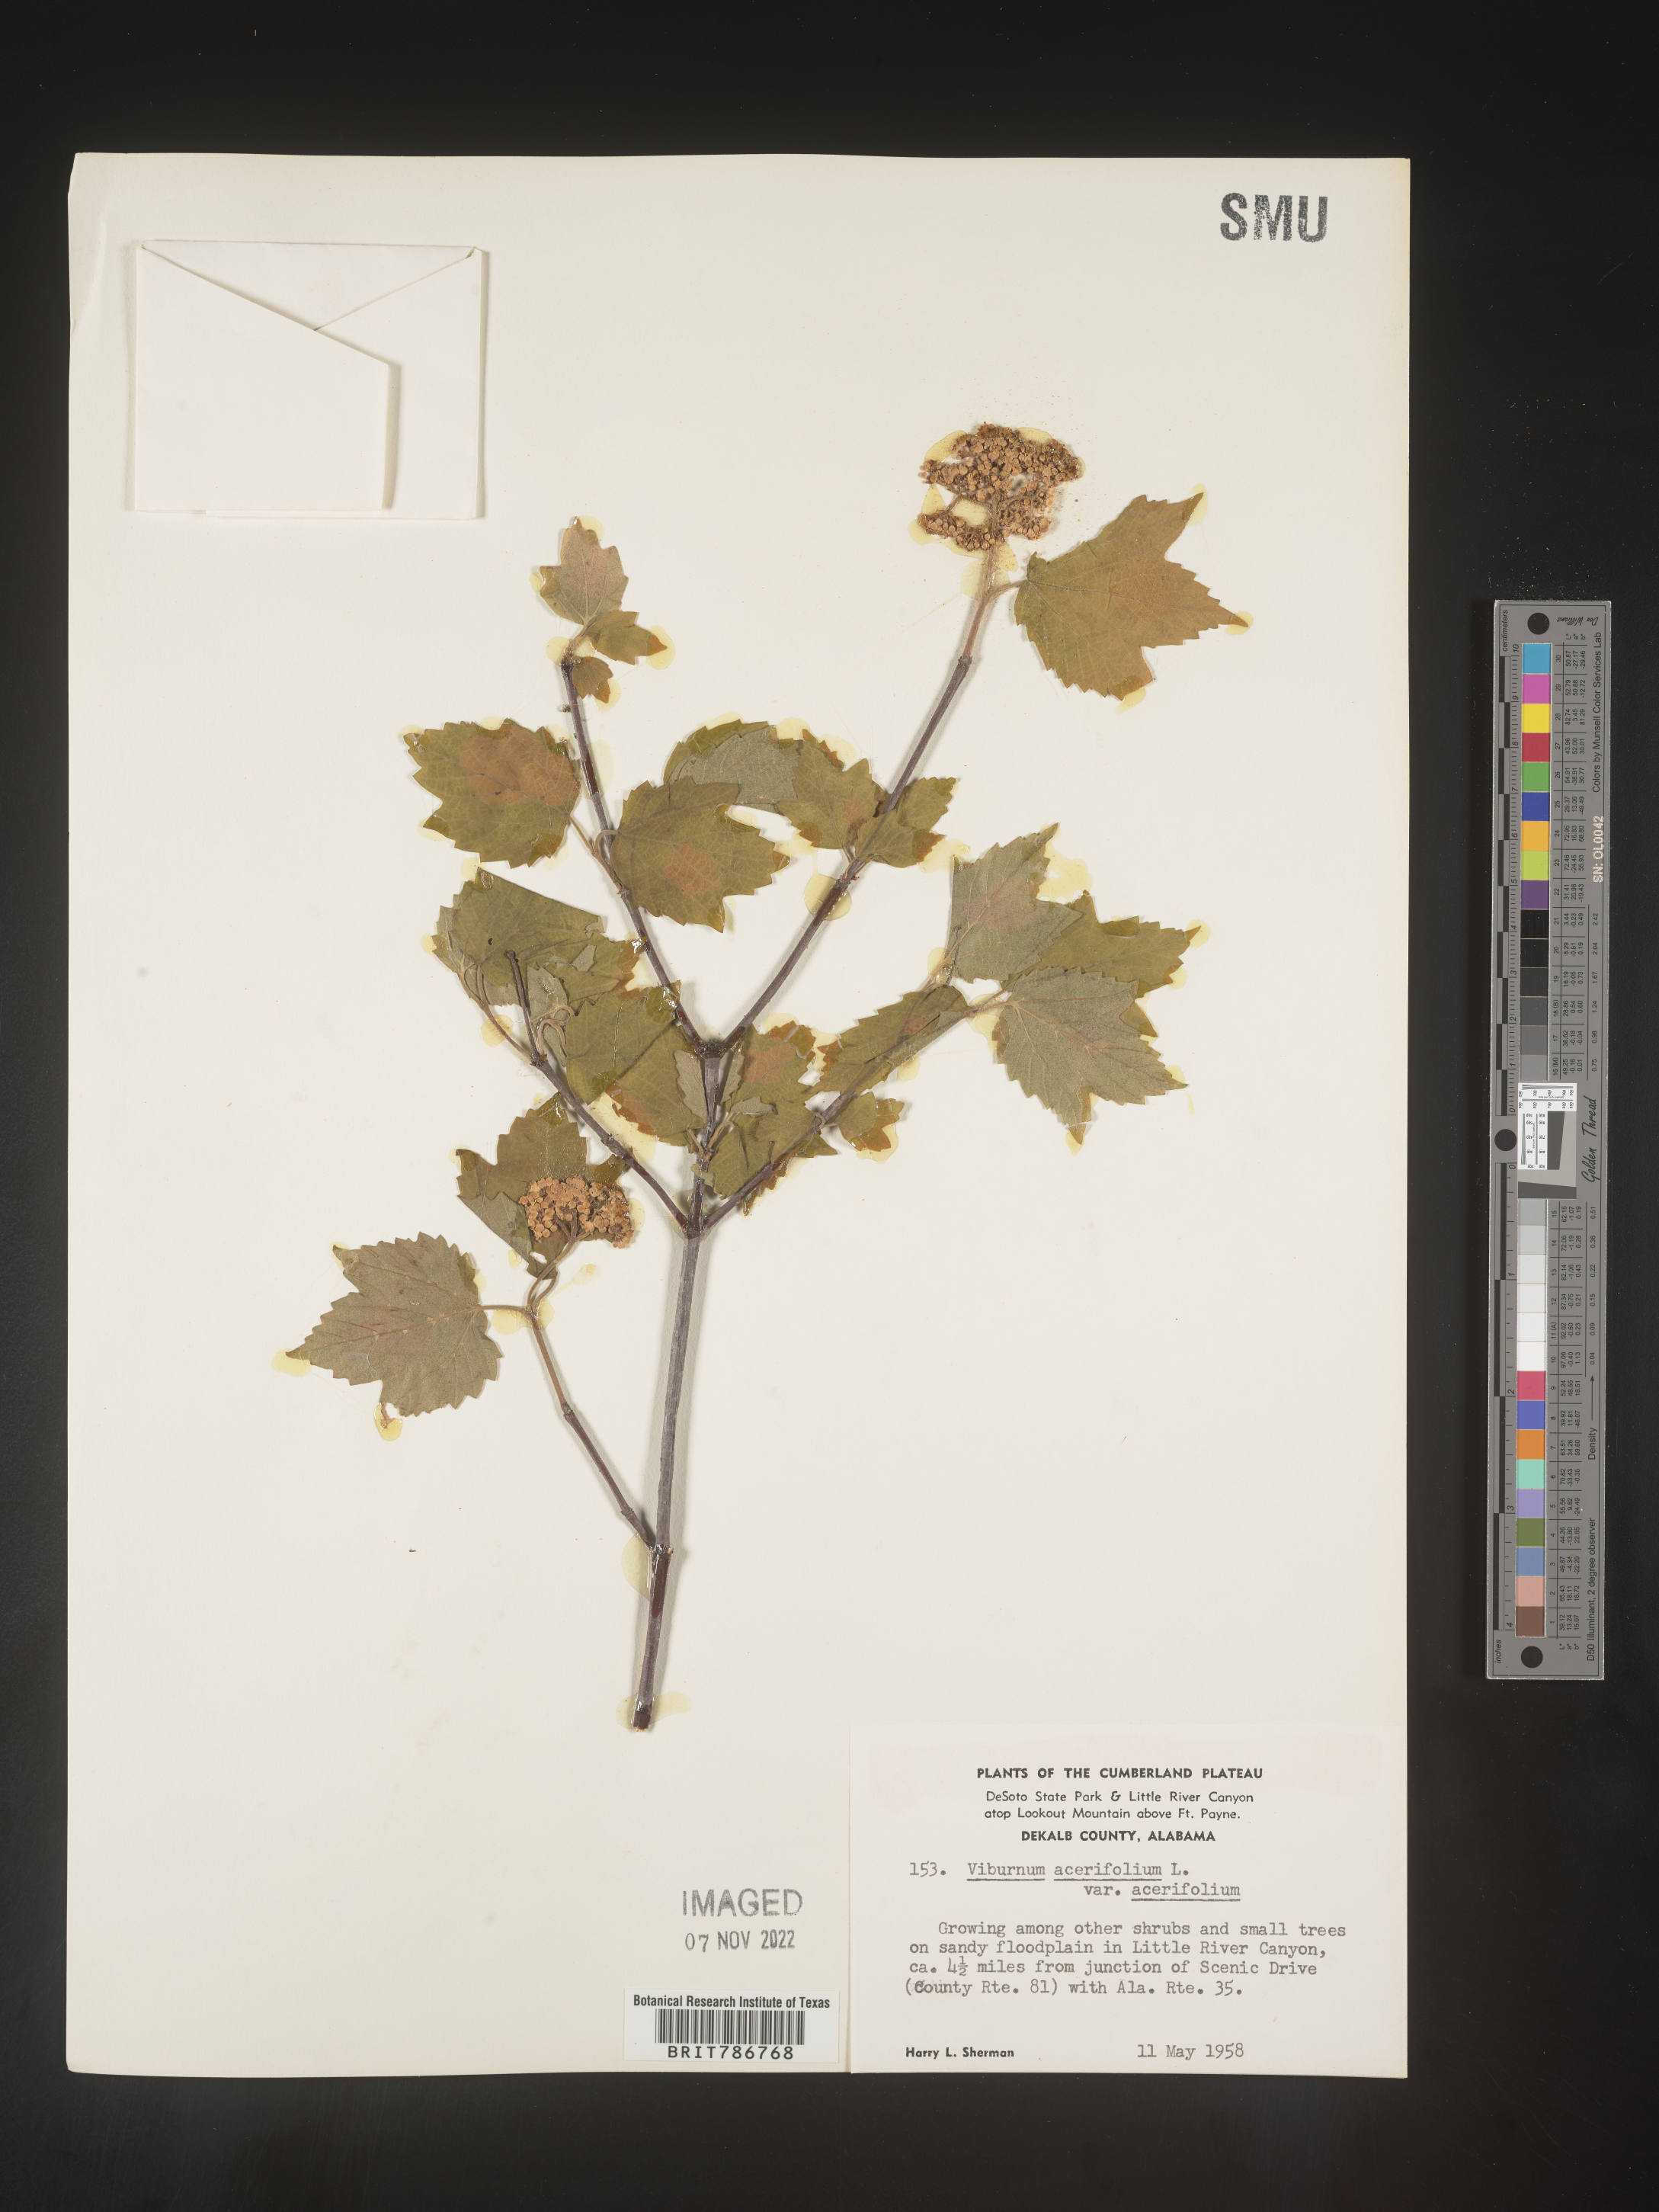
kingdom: Plantae
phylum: Tracheophyta
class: Magnoliopsida
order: Dipsacales
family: Viburnaceae
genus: Viburnum
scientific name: Viburnum acerifolium
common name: Dockmackie
